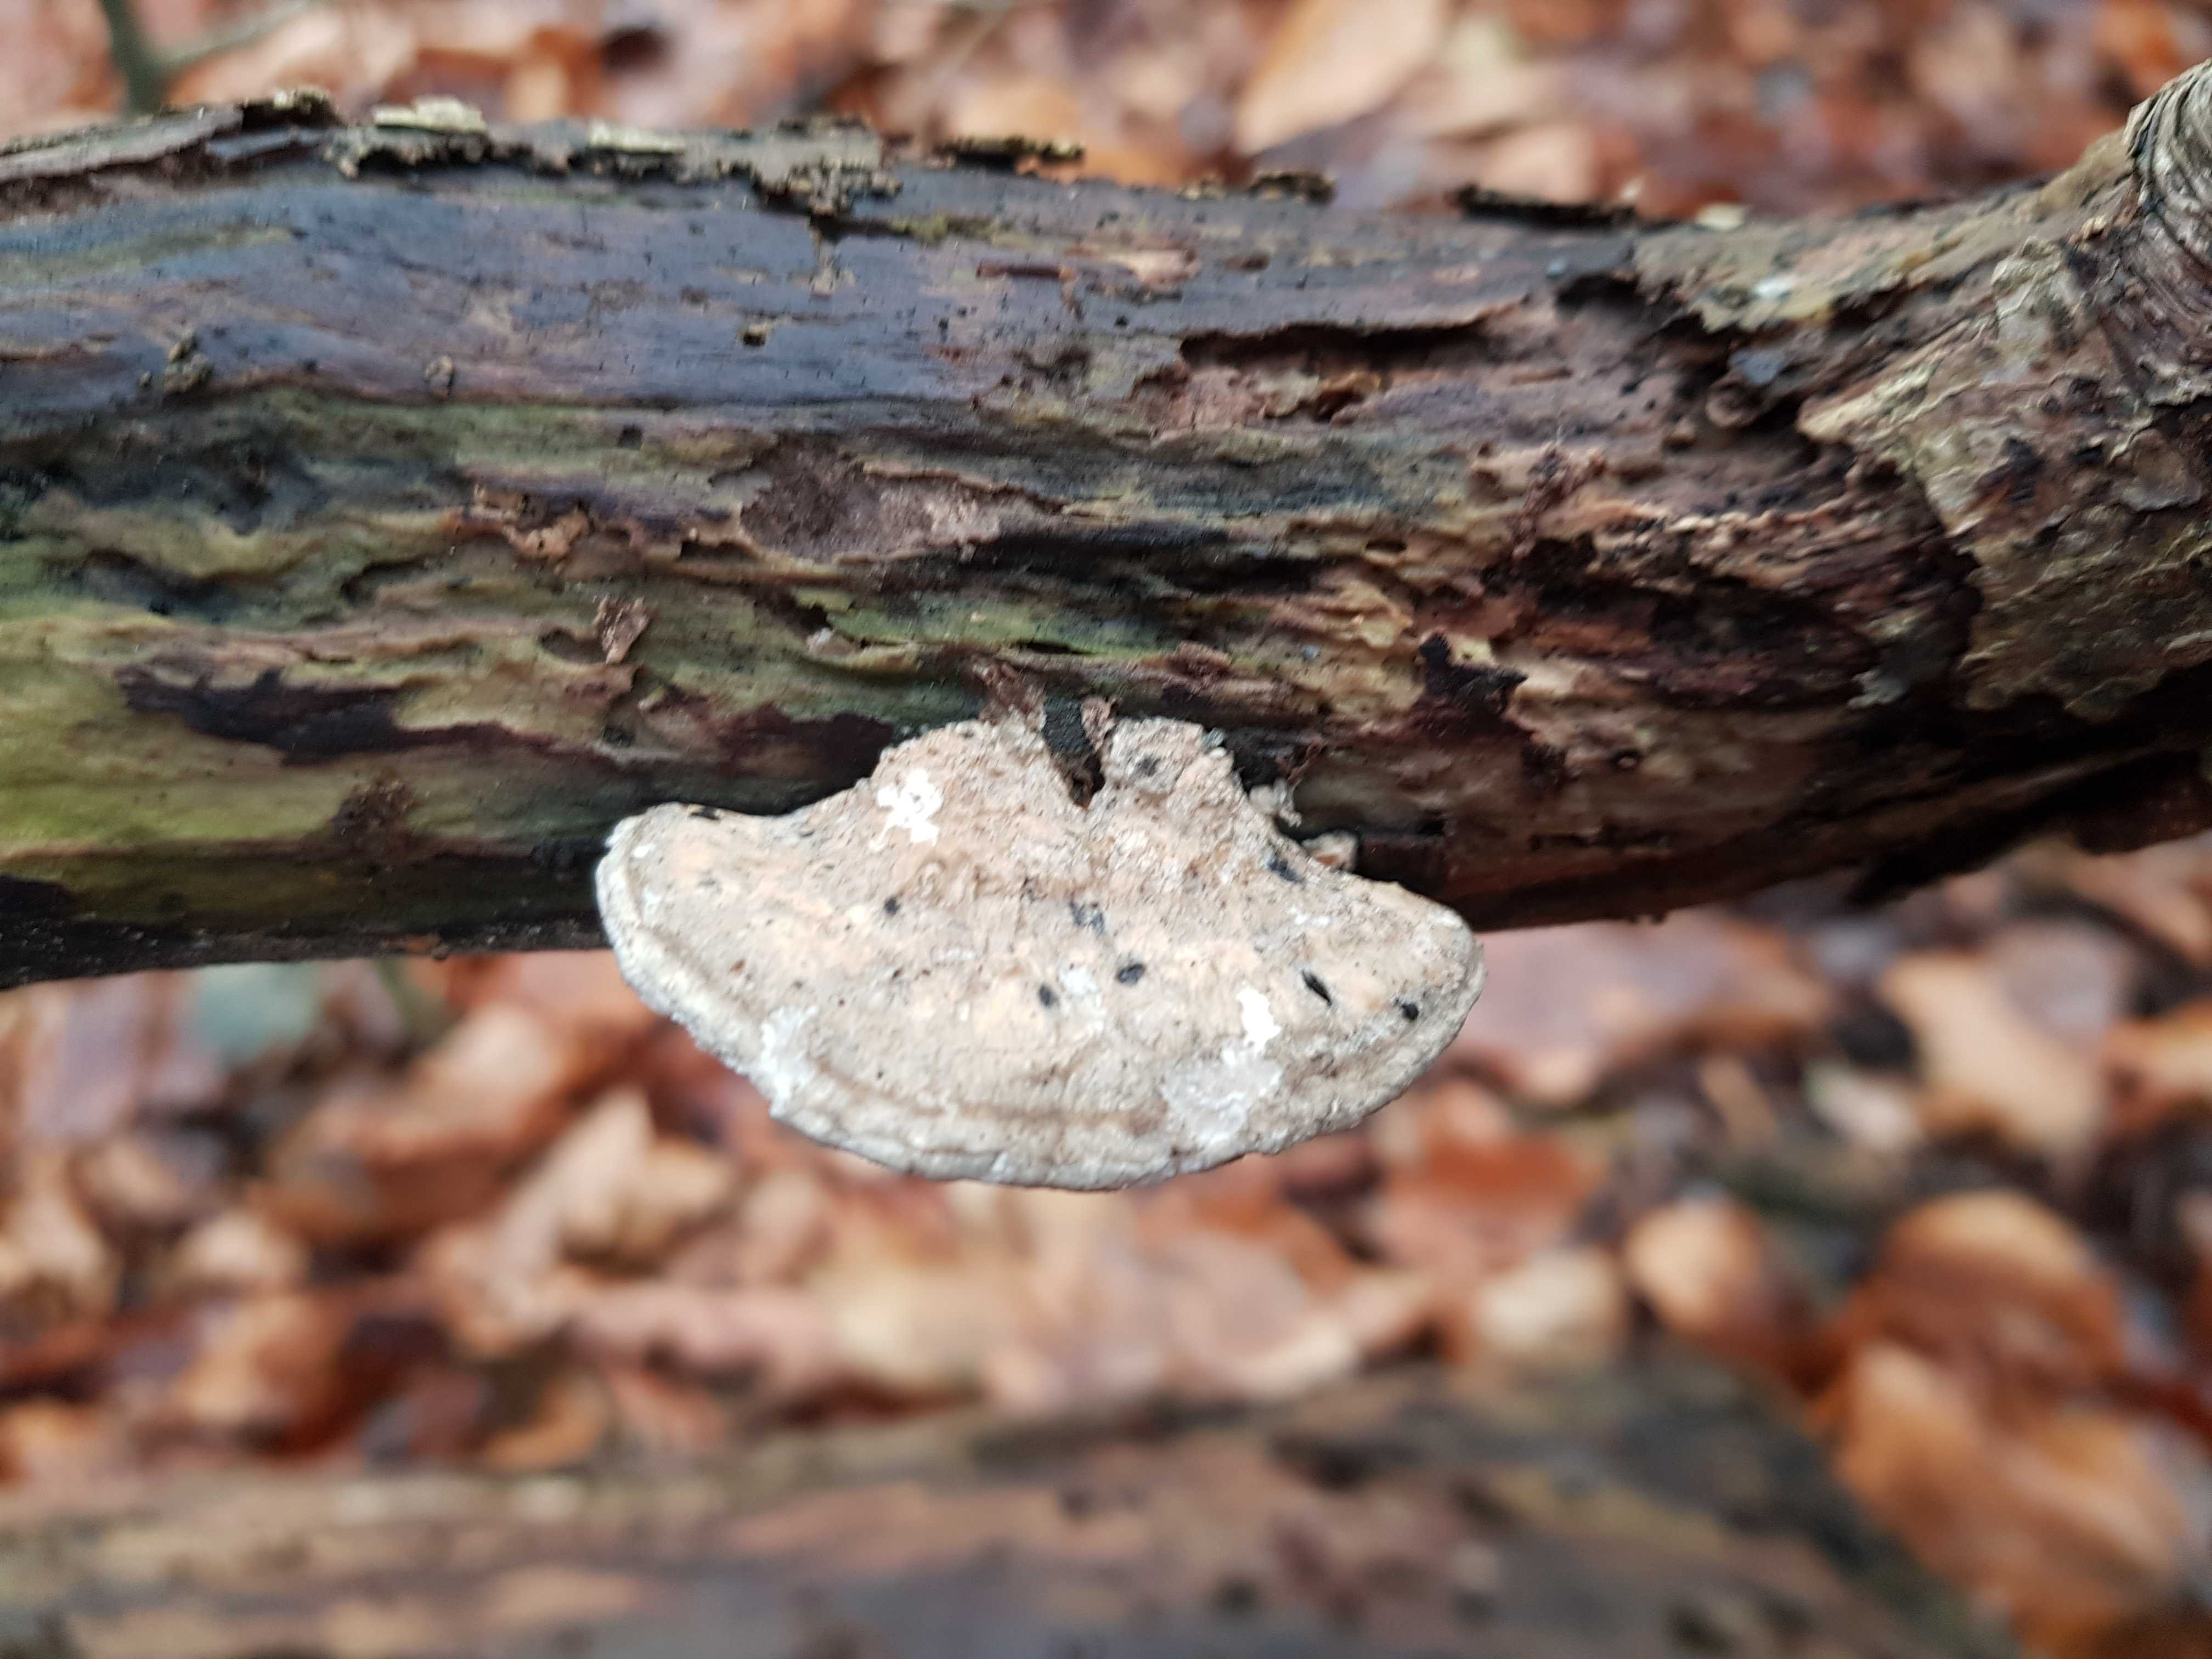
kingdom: Fungi
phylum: Basidiomycota
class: Agaricomycetes
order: Polyporales
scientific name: Polyporales
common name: poresvampordenen
